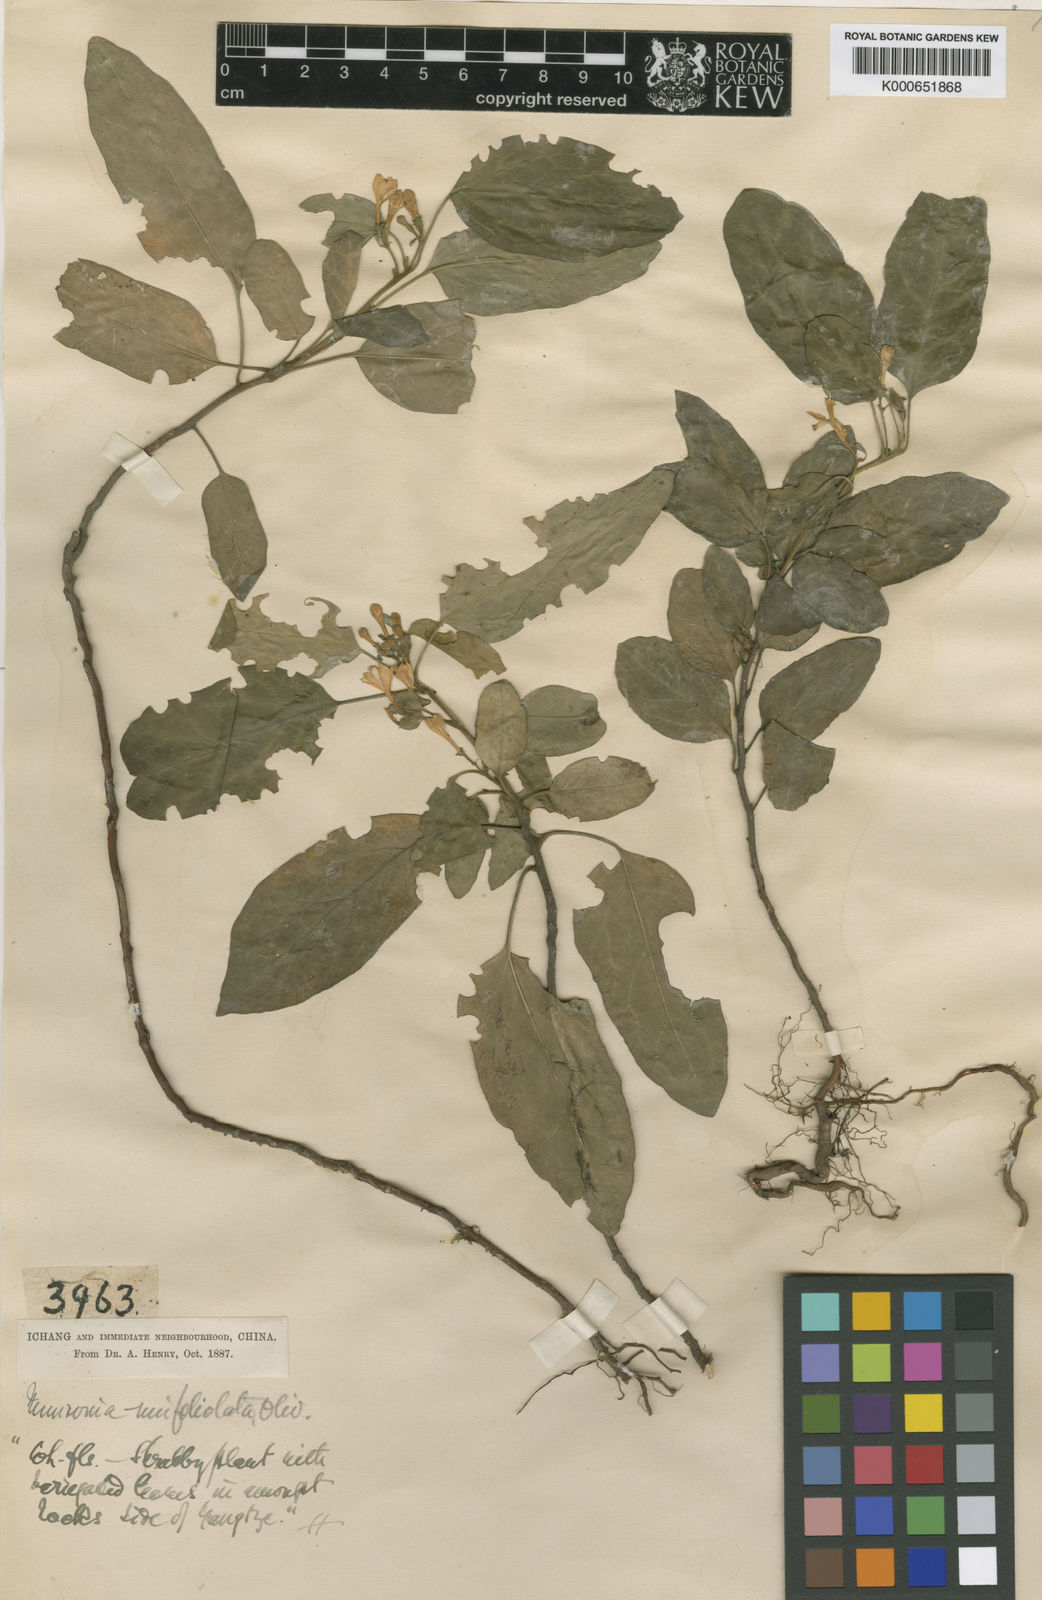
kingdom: Plantae
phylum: Tracheophyta
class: Magnoliopsida
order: Sapindales
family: Meliaceae
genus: Munronia
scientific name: Munronia unifoliolata
